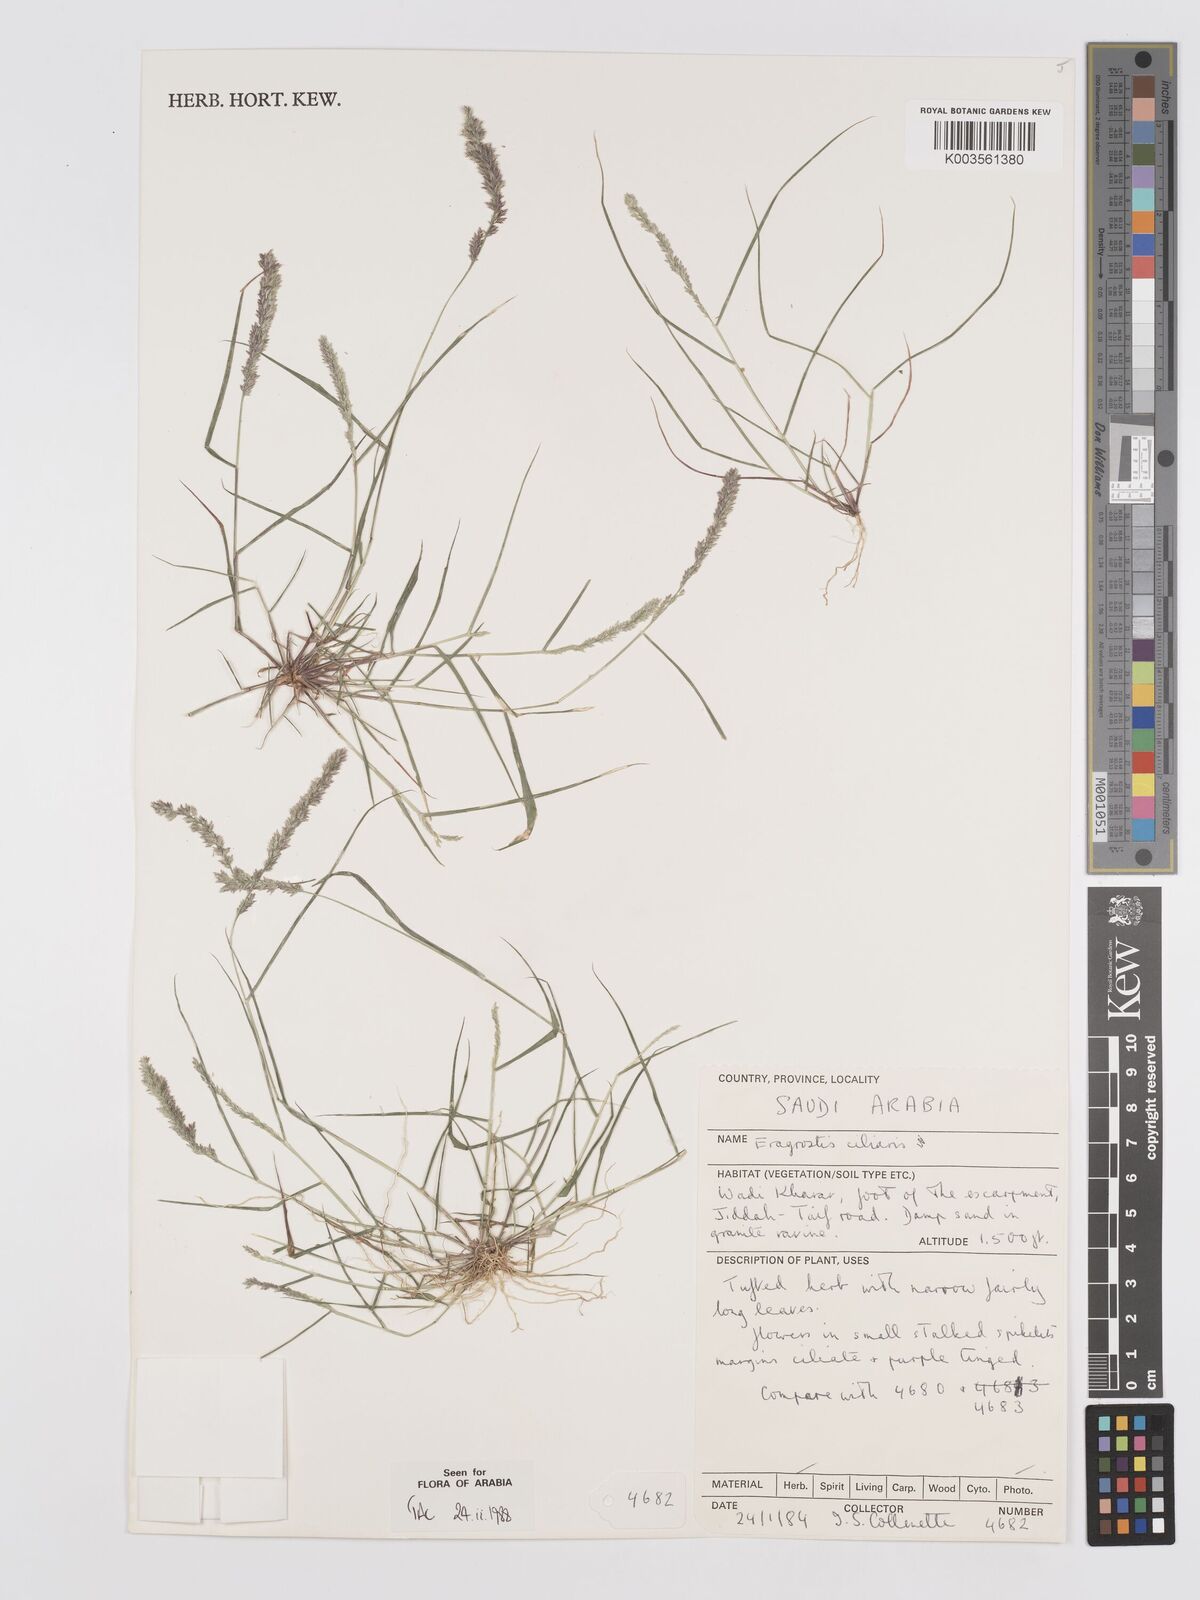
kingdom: Plantae
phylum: Tracheophyta
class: Liliopsida
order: Poales
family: Poaceae
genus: Eragrostis
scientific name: Eragrostis ciliaris
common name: Gophertail lovegrass
